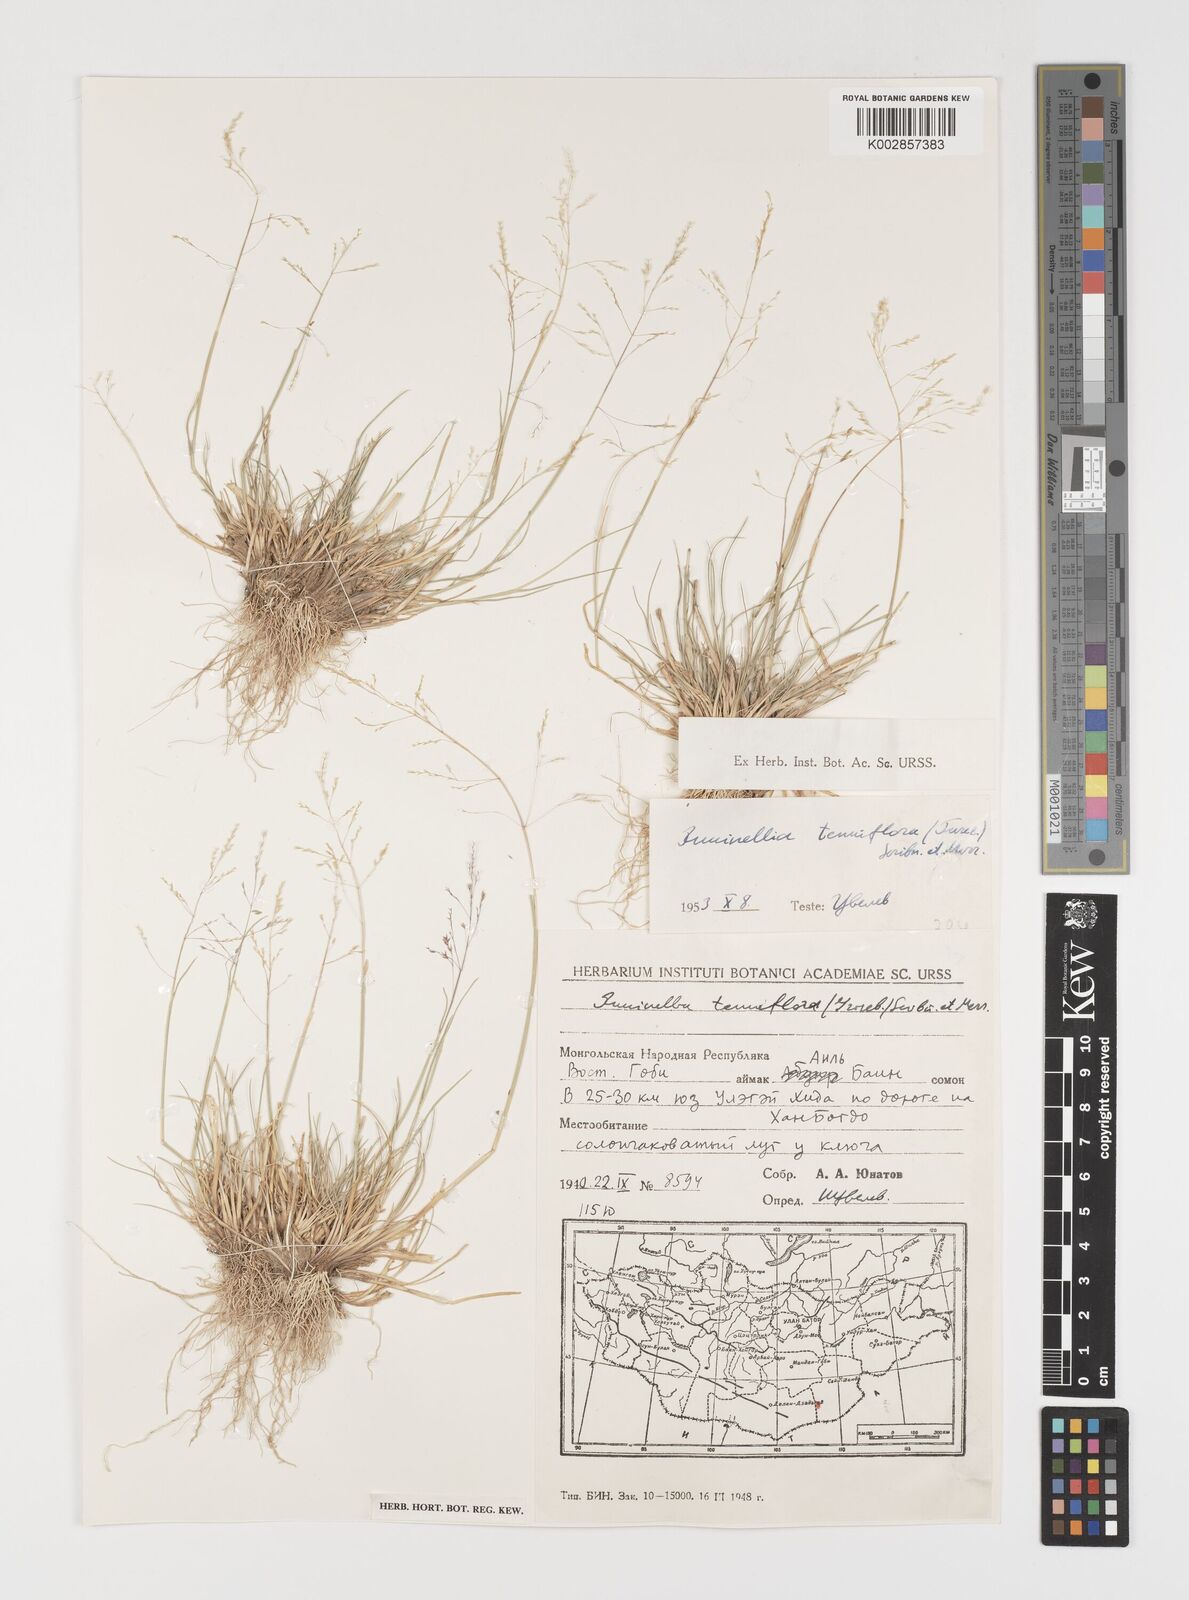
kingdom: Plantae
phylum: Tracheophyta
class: Liliopsida
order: Poales
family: Poaceae
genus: Puccinellia
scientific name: Puccinellia tenuiflora
